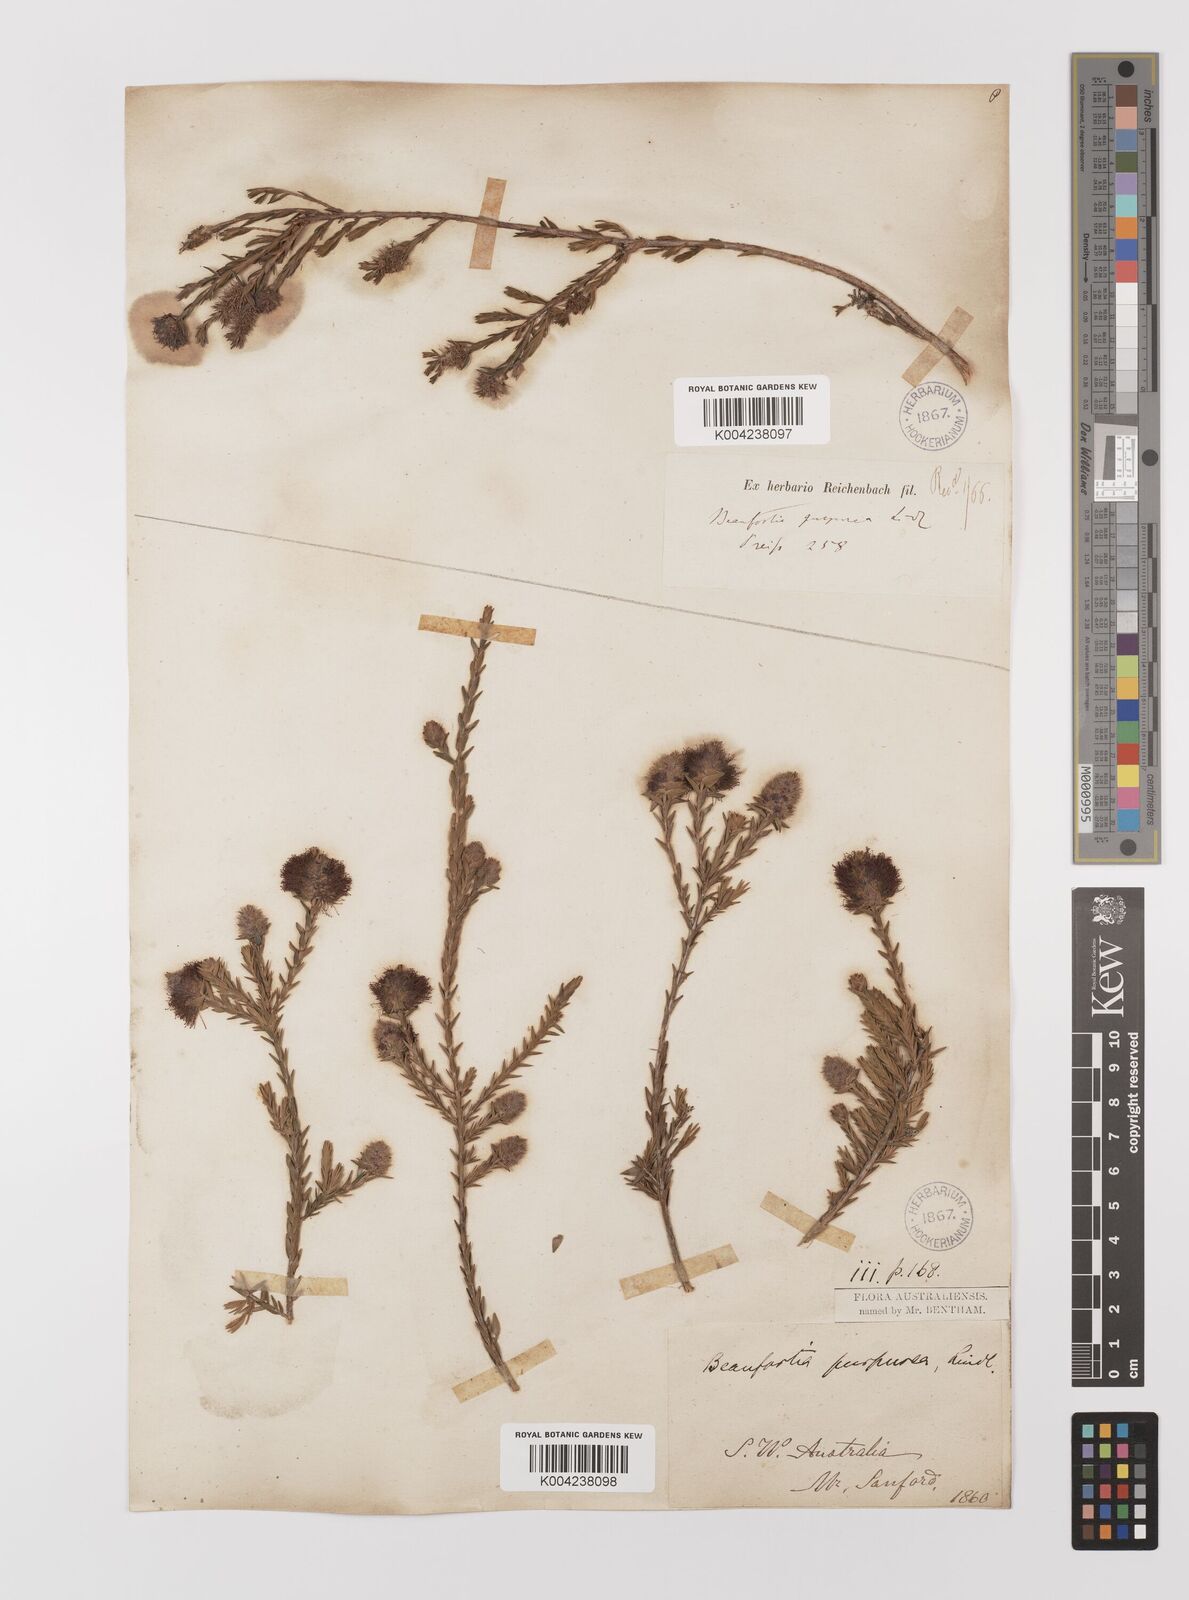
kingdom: Plantae
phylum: Tracheophyta
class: Magnoliopsida
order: Myrtales
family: Myrtaceae
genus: Melaleuca
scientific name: Melaleuca purpurea
